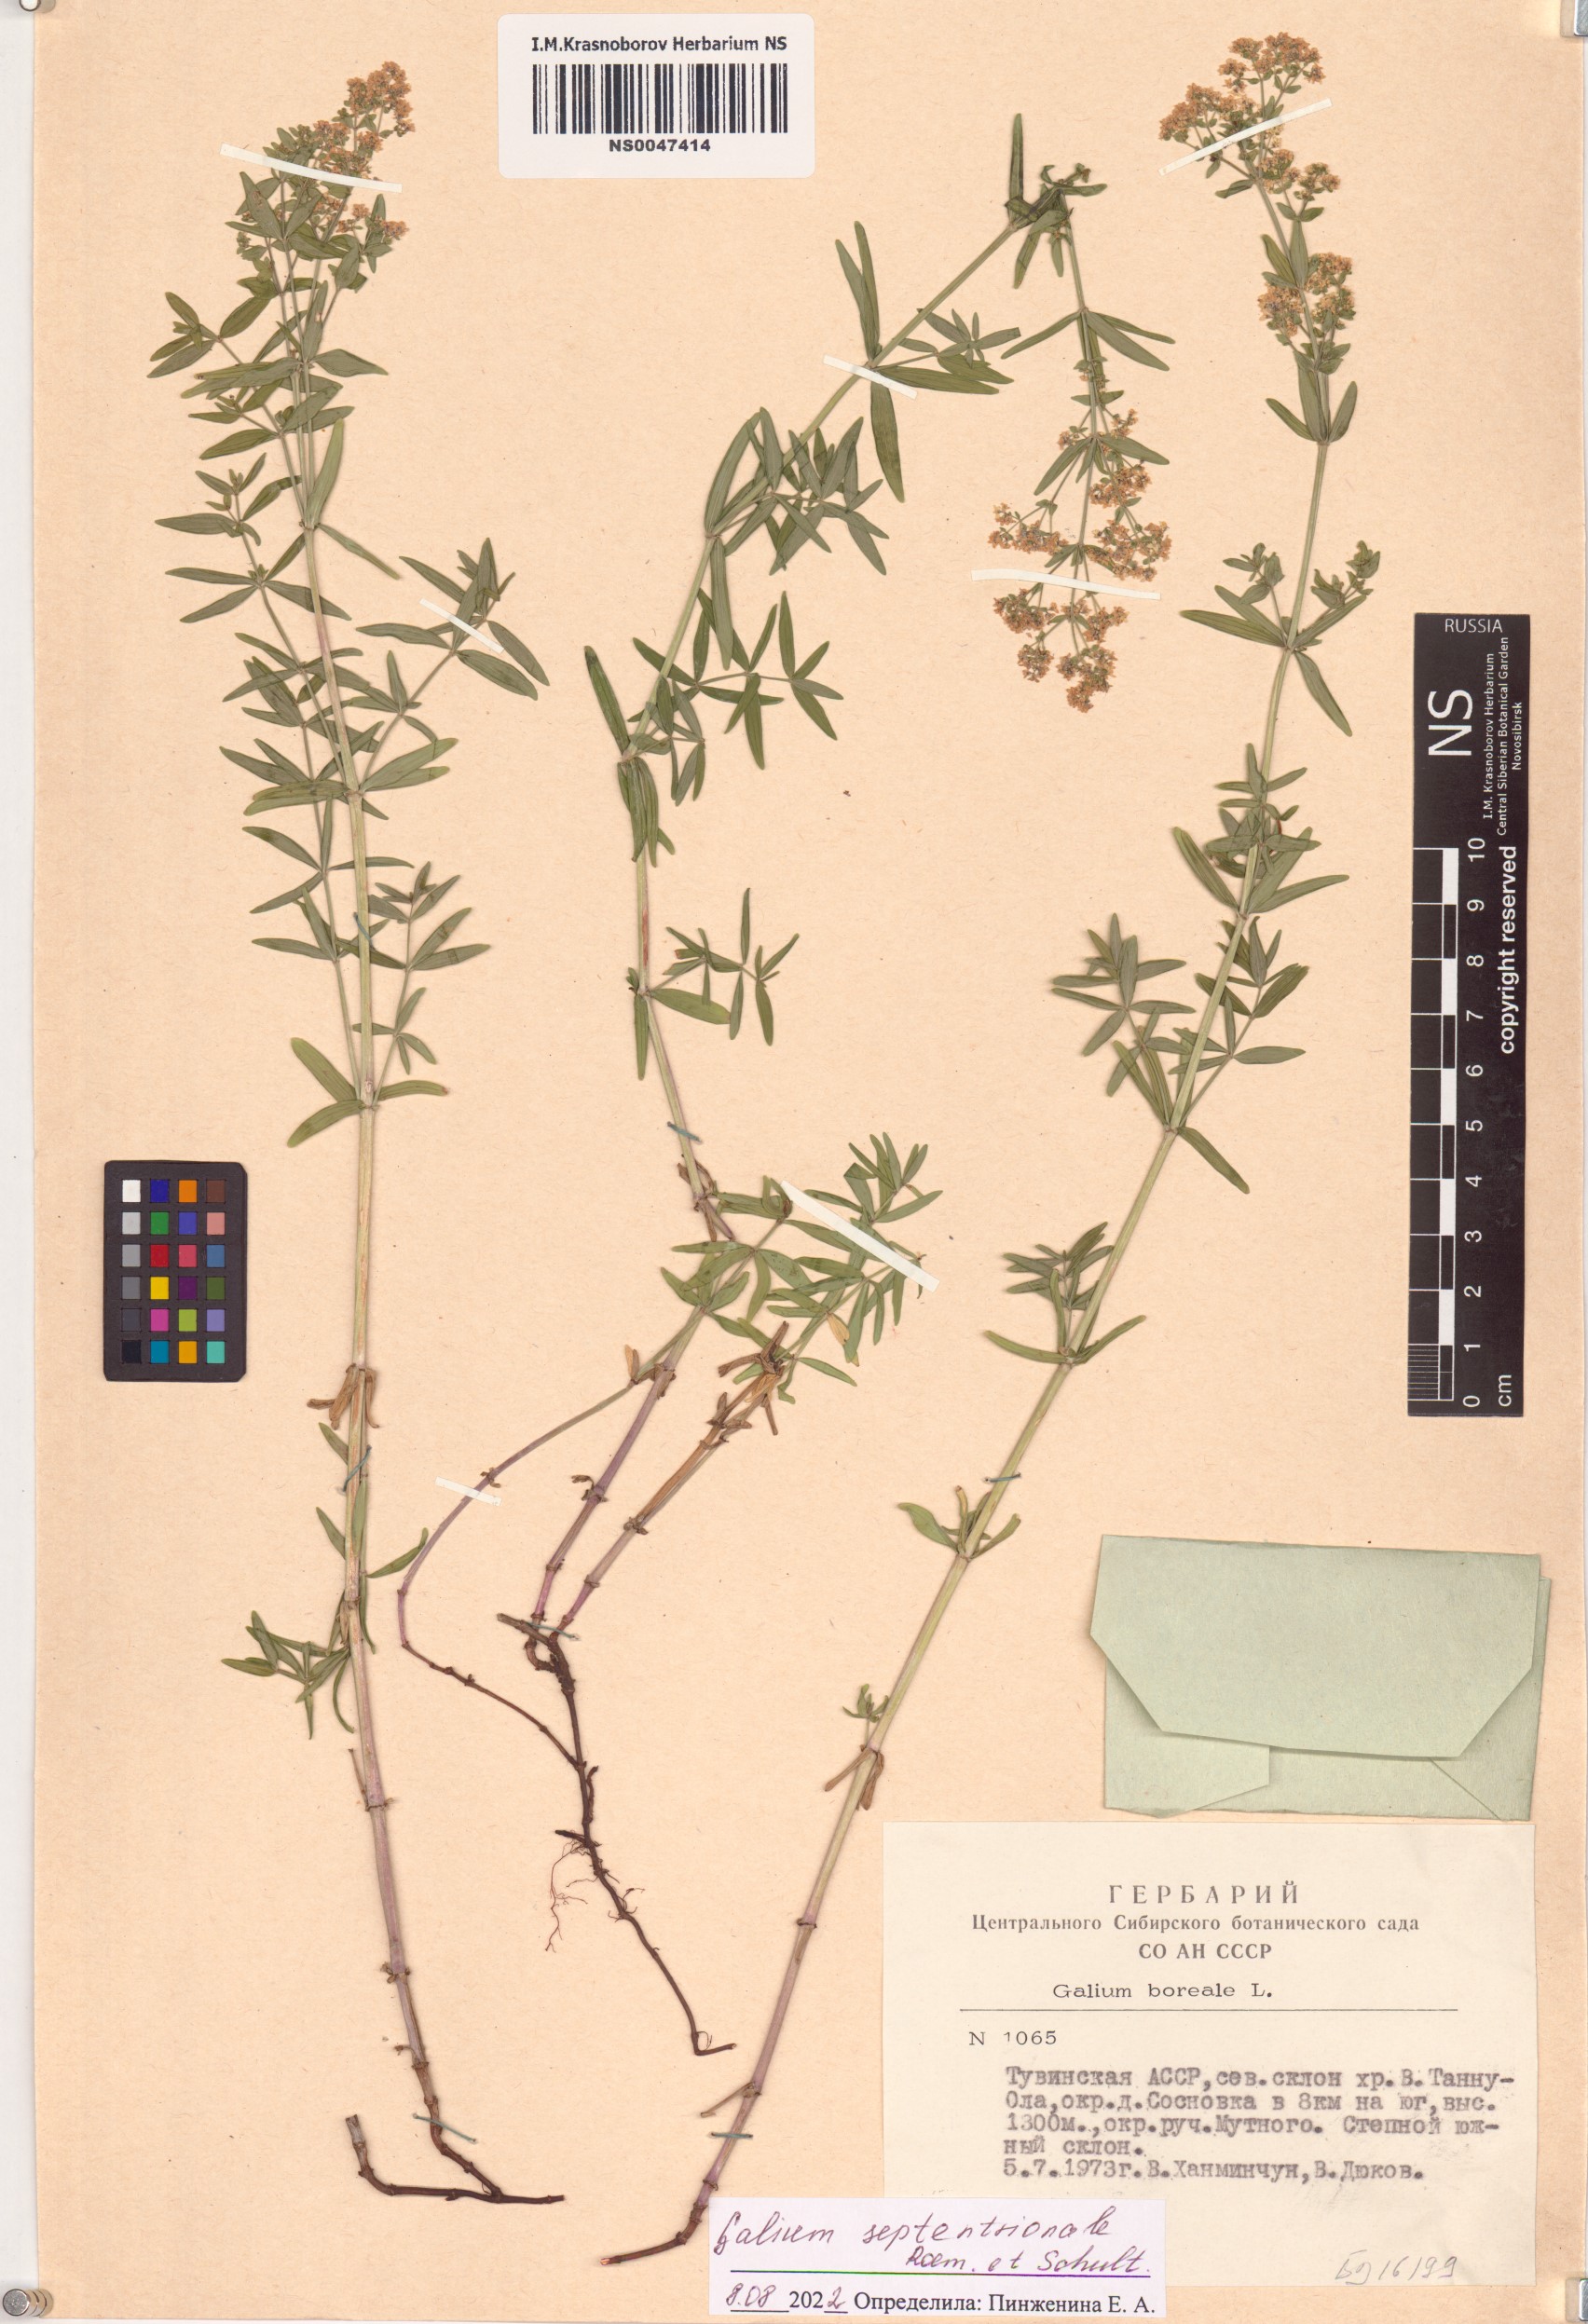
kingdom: Plantae
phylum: Tracheophyta
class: Magnoliopsida
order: Gentianales
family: Rubiaceae
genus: Galium
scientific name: Galium boreale
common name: Northern bedstraw
